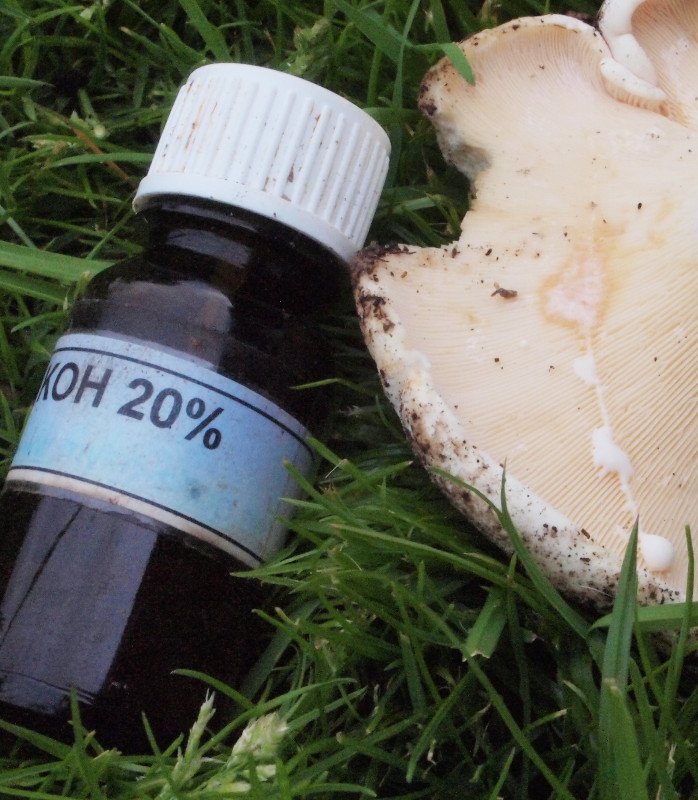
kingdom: Fungi
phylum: Basidiomycota
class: Agaricomycetes
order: Russulales
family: Russulaceae
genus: Lactifluus
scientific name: Lactifluus piperatus
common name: peber-mælkehat
